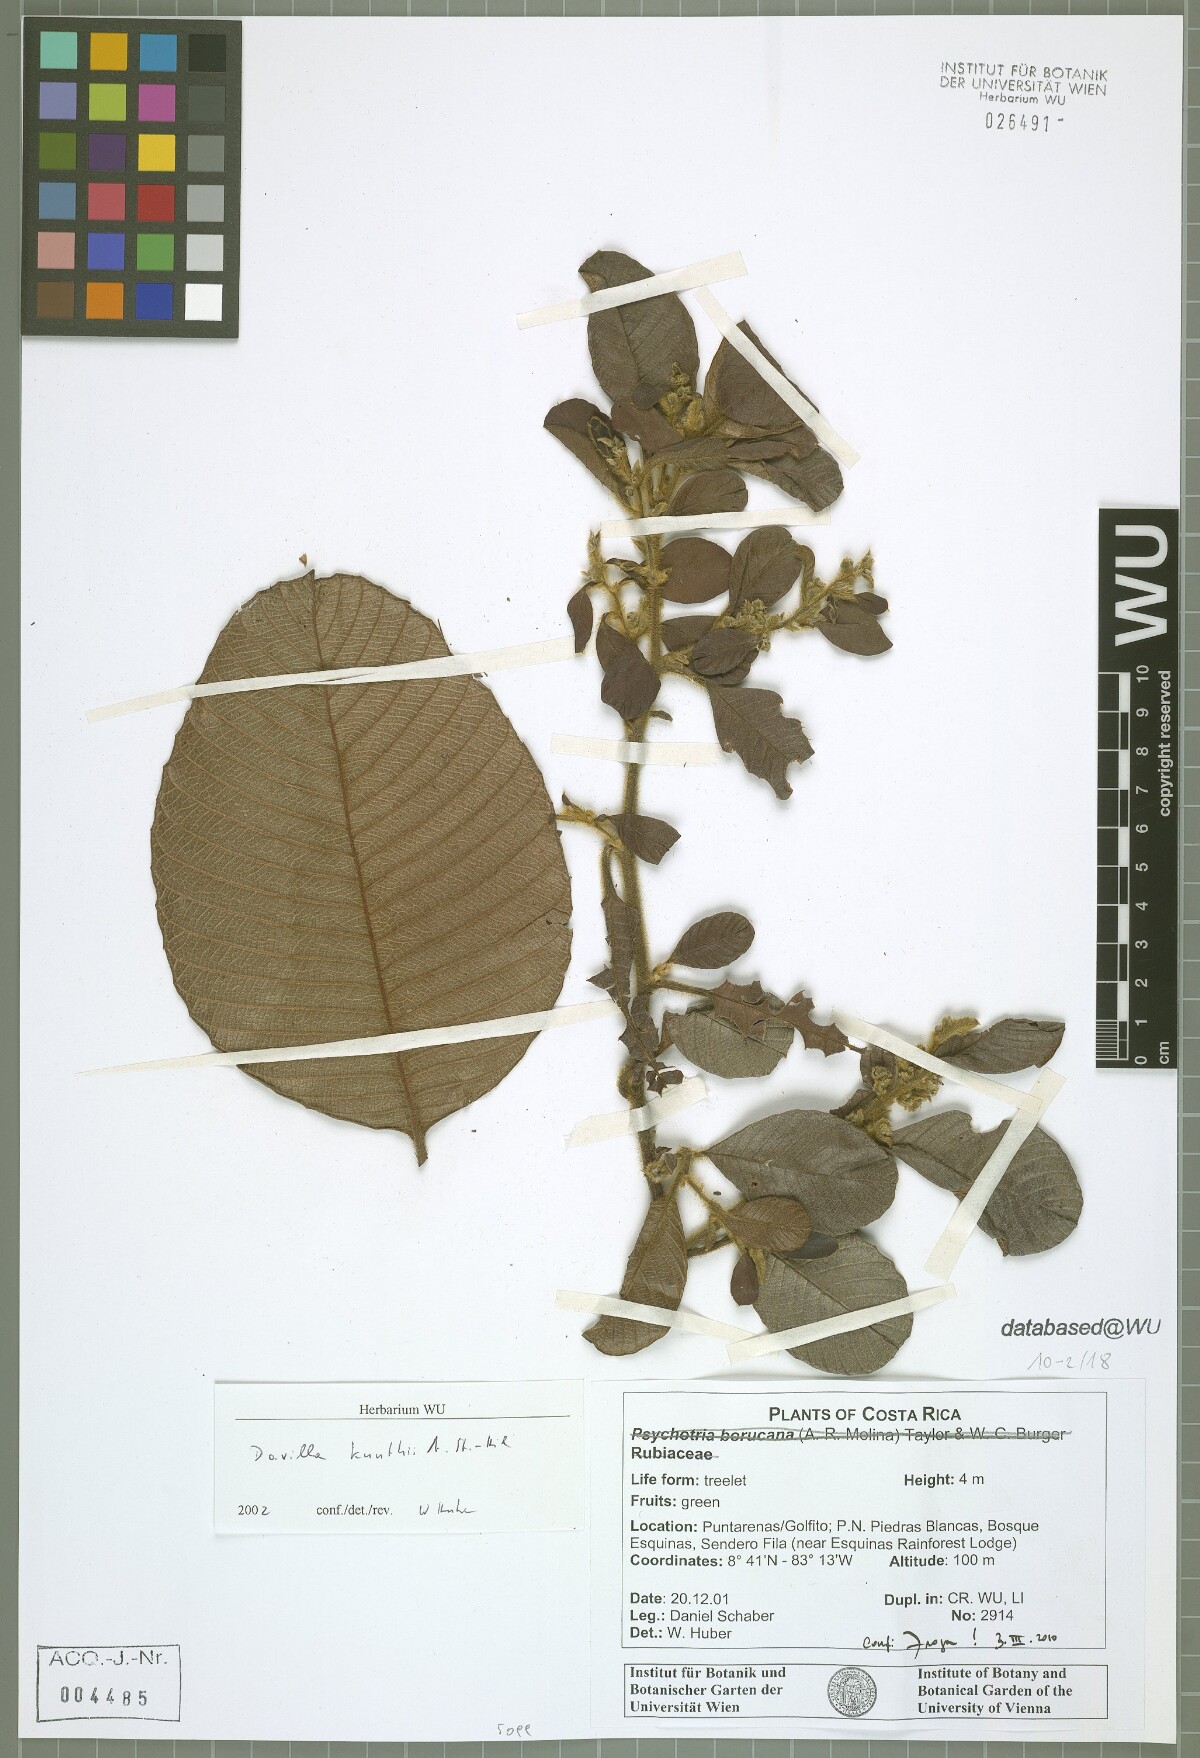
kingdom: Plantae
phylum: Tracheophyta
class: Magnoliopsida
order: Dilleniales
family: Dilleniaceae
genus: Davilla
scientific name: Davilla kunthii
